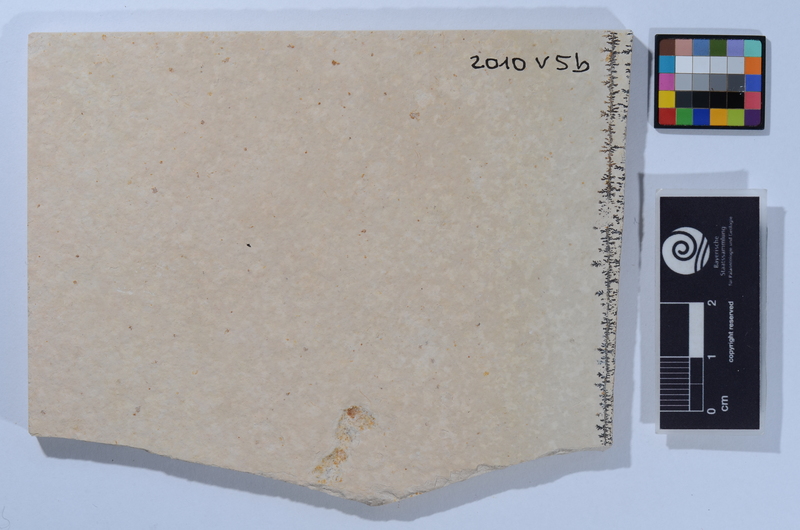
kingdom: Animalia
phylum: Chordata
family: Allothrissopidae
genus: Allothrissops
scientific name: Allothrissops
